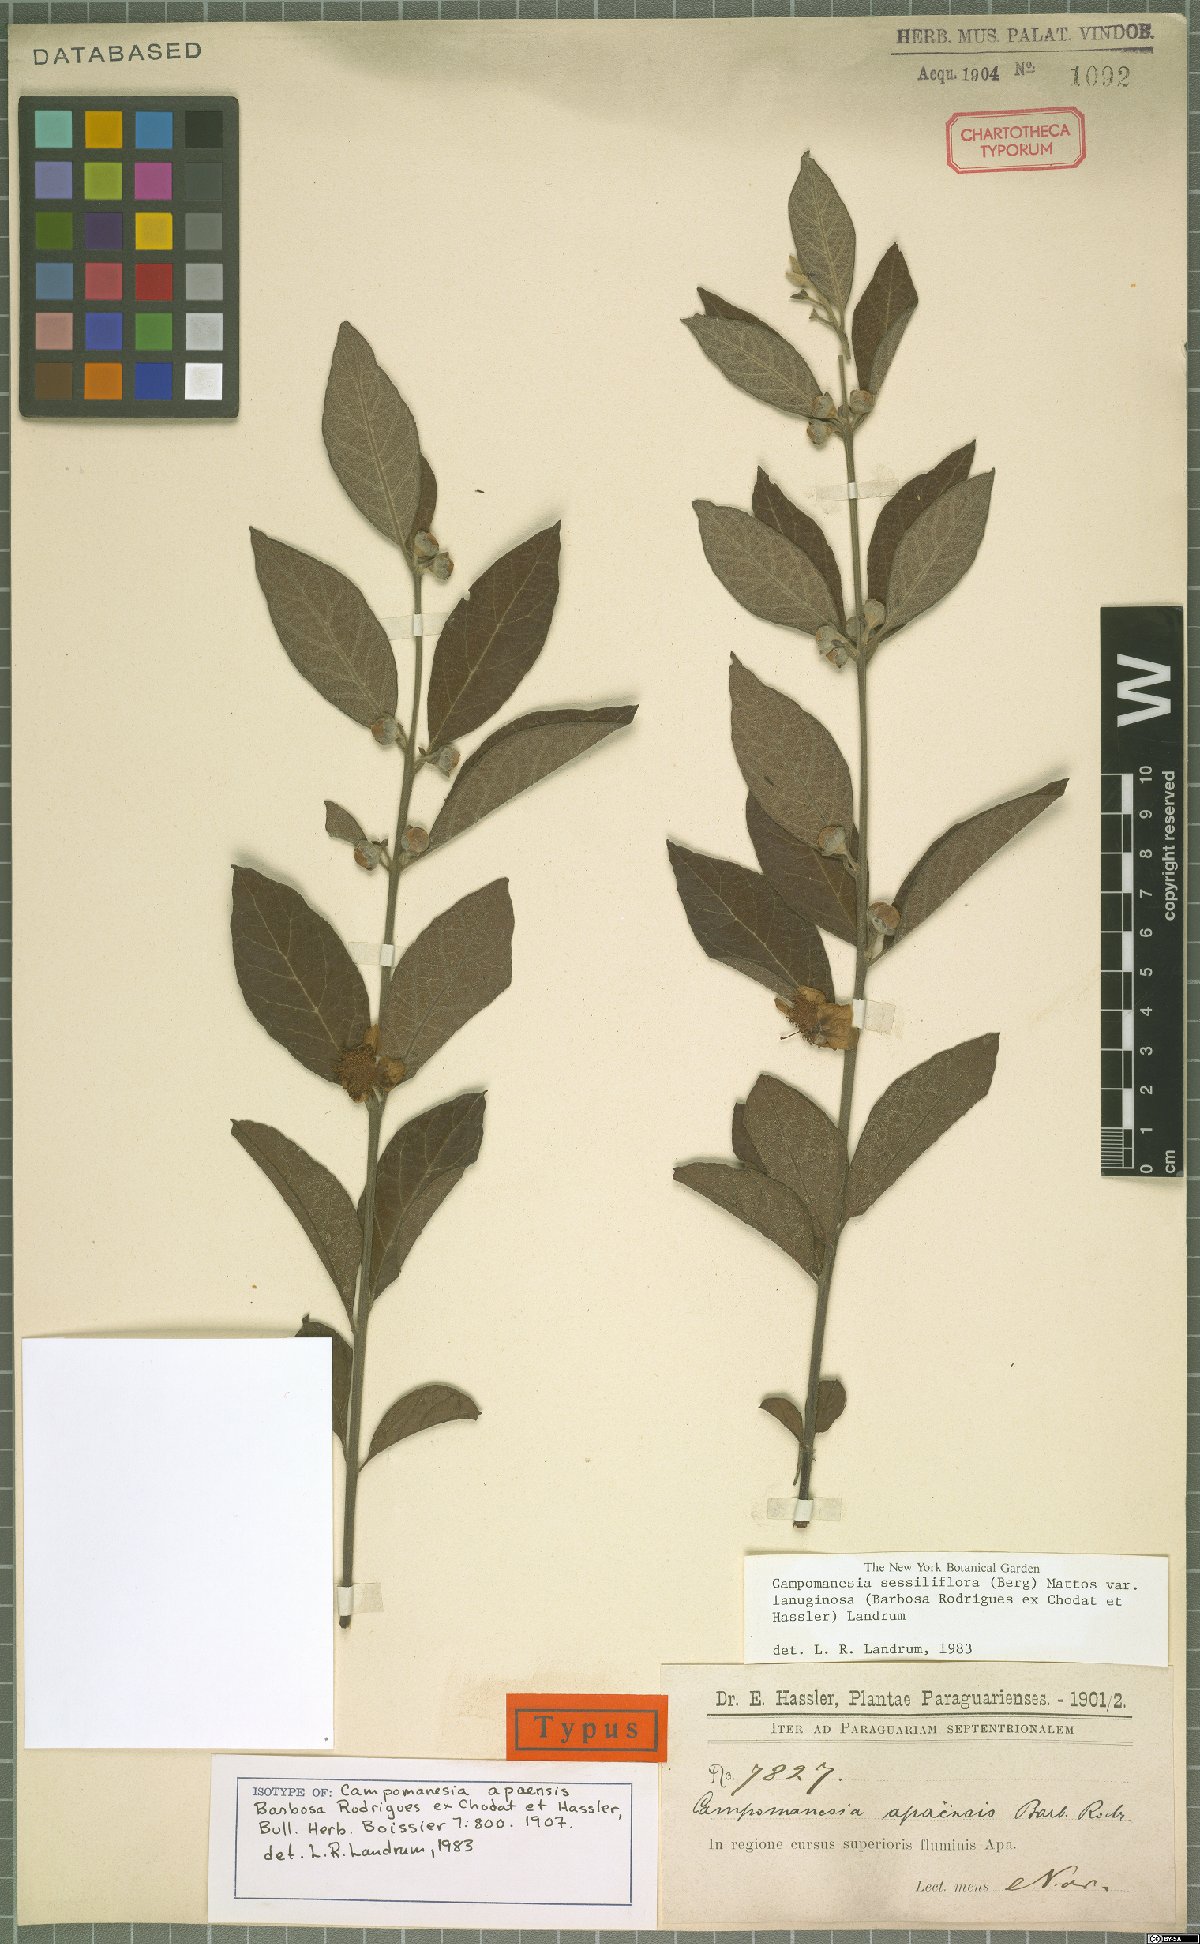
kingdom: Plantae
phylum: Tracheophyta
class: Magnoliopsida
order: Myrtales
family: Myrtaceae
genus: Campomanesia
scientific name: Campomanesia sessiliflora
